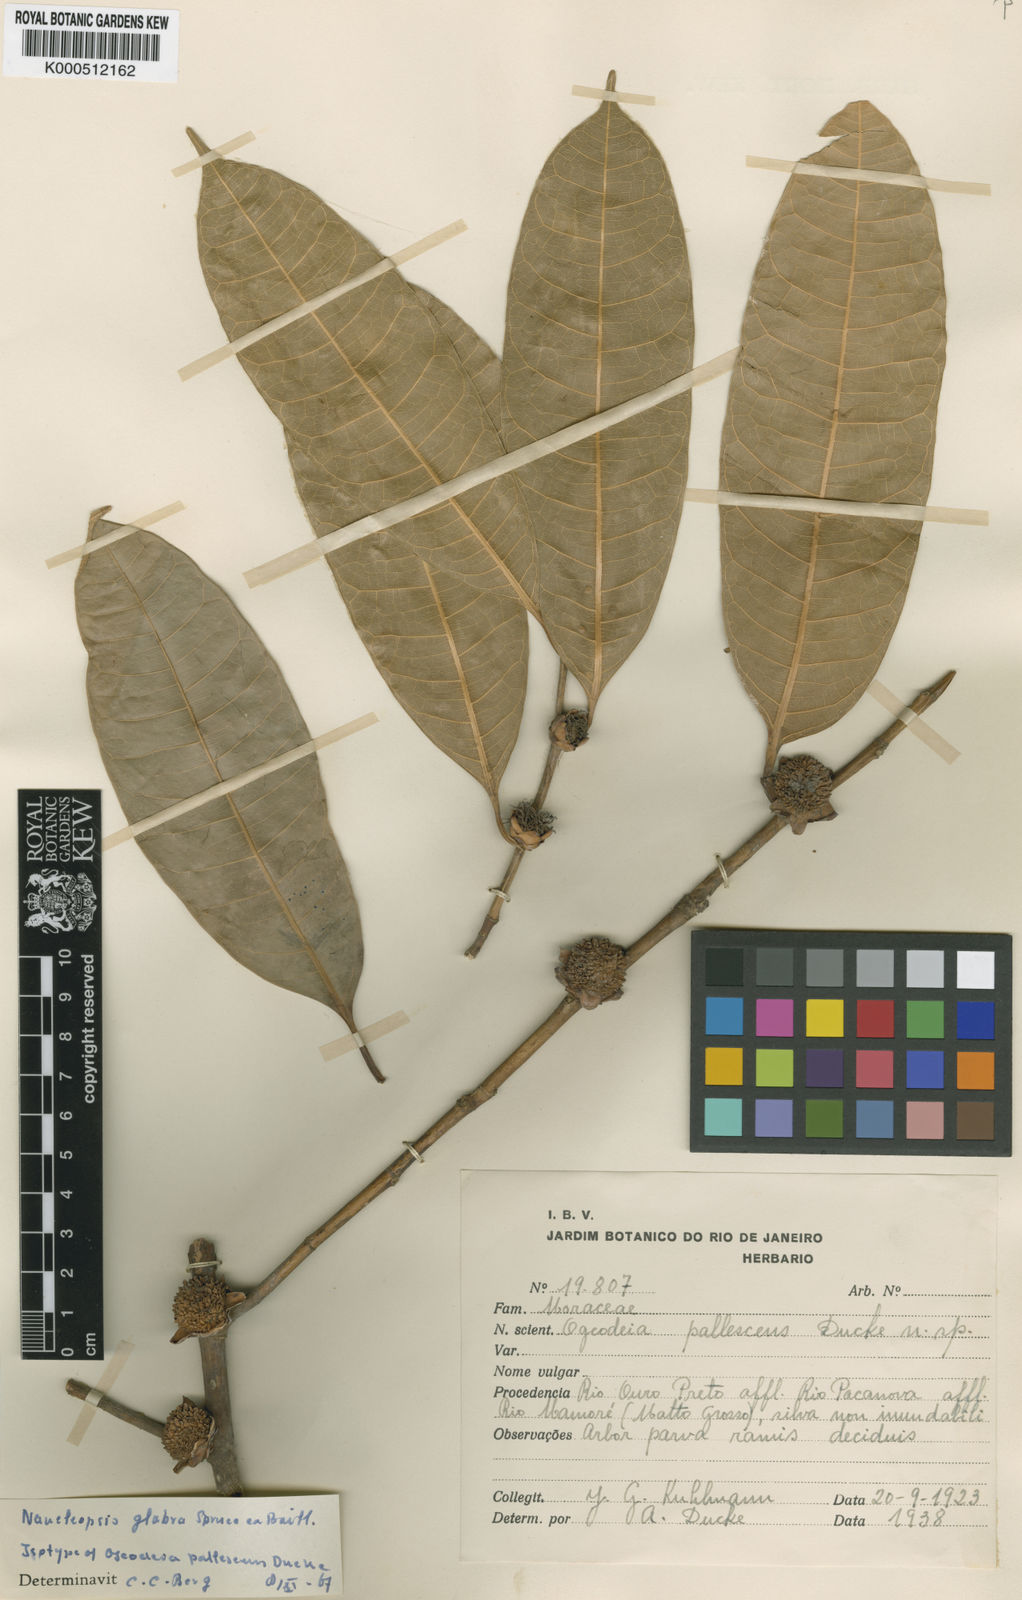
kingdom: Plantae
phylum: Tracheophyta
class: Magnoliopsida
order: Rosales
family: Moraceae
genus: Naucleopsis
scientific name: Naucleopsis glabra
